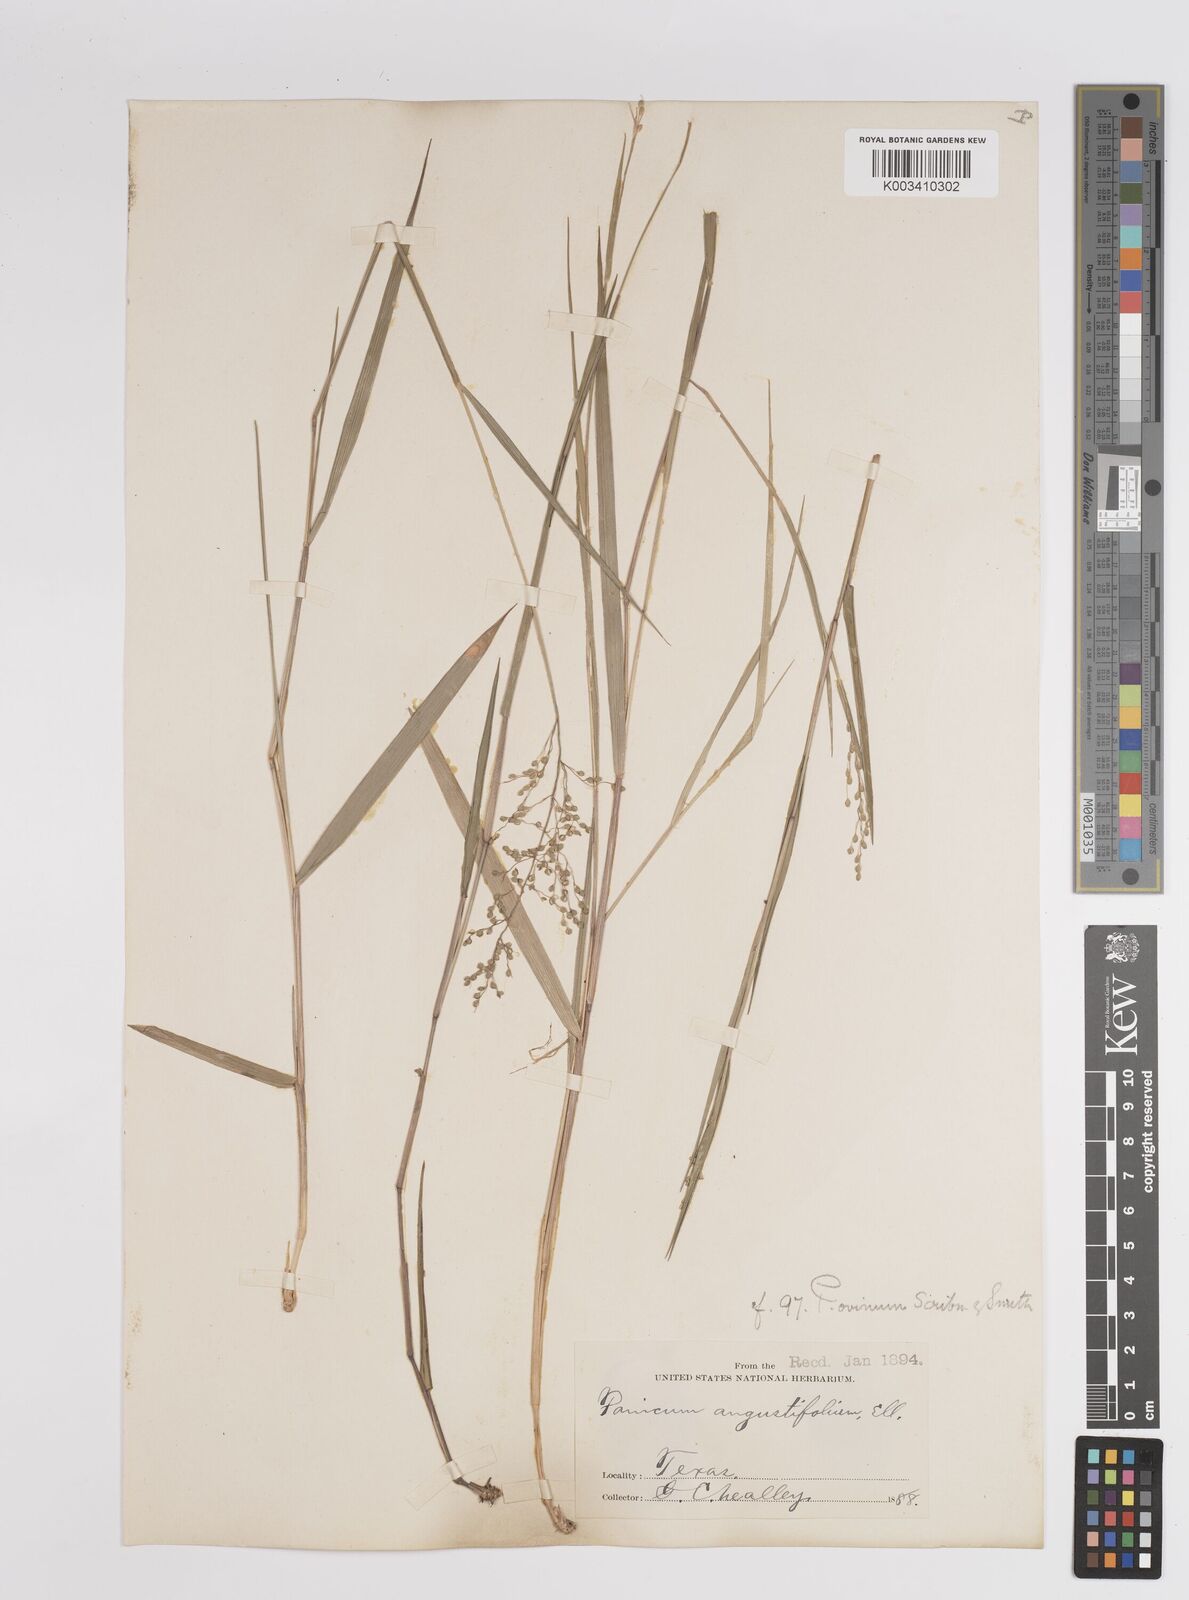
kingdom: Plantae
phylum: Tracheophyta
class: Liliopsida
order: Poales
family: Poaceae
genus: Dichanthelium
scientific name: Dichanthelium aciculare
